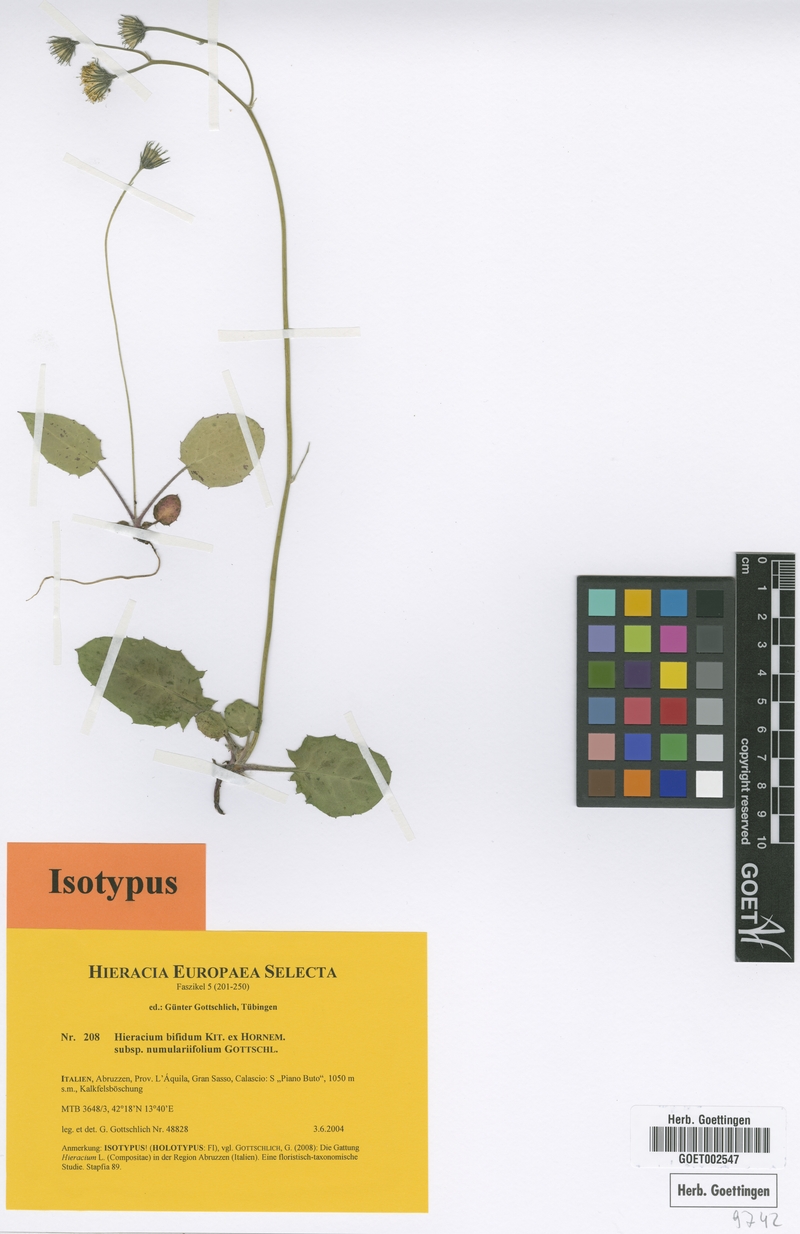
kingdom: Plantae
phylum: Tracheophyta
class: Magnoliopsida
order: Asterales
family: Asteraceae
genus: Hieracium
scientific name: Hieracium bifidum
